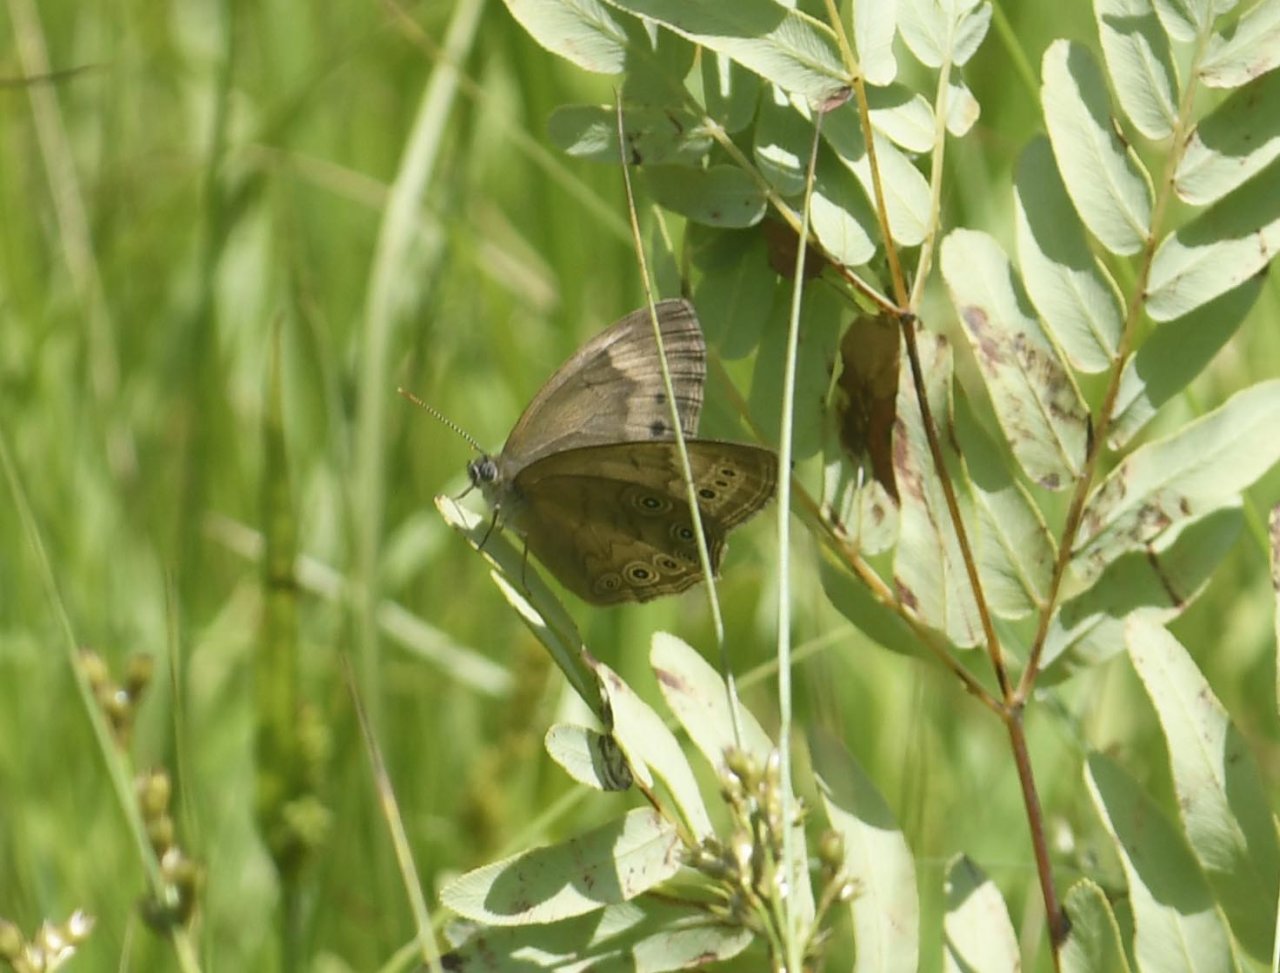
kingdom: Animalia
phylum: Arthropoda
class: Insecta
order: Lepidoptera
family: Nymphalidae
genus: Lethe
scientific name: Lethe eurydice
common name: Eyed Brown
